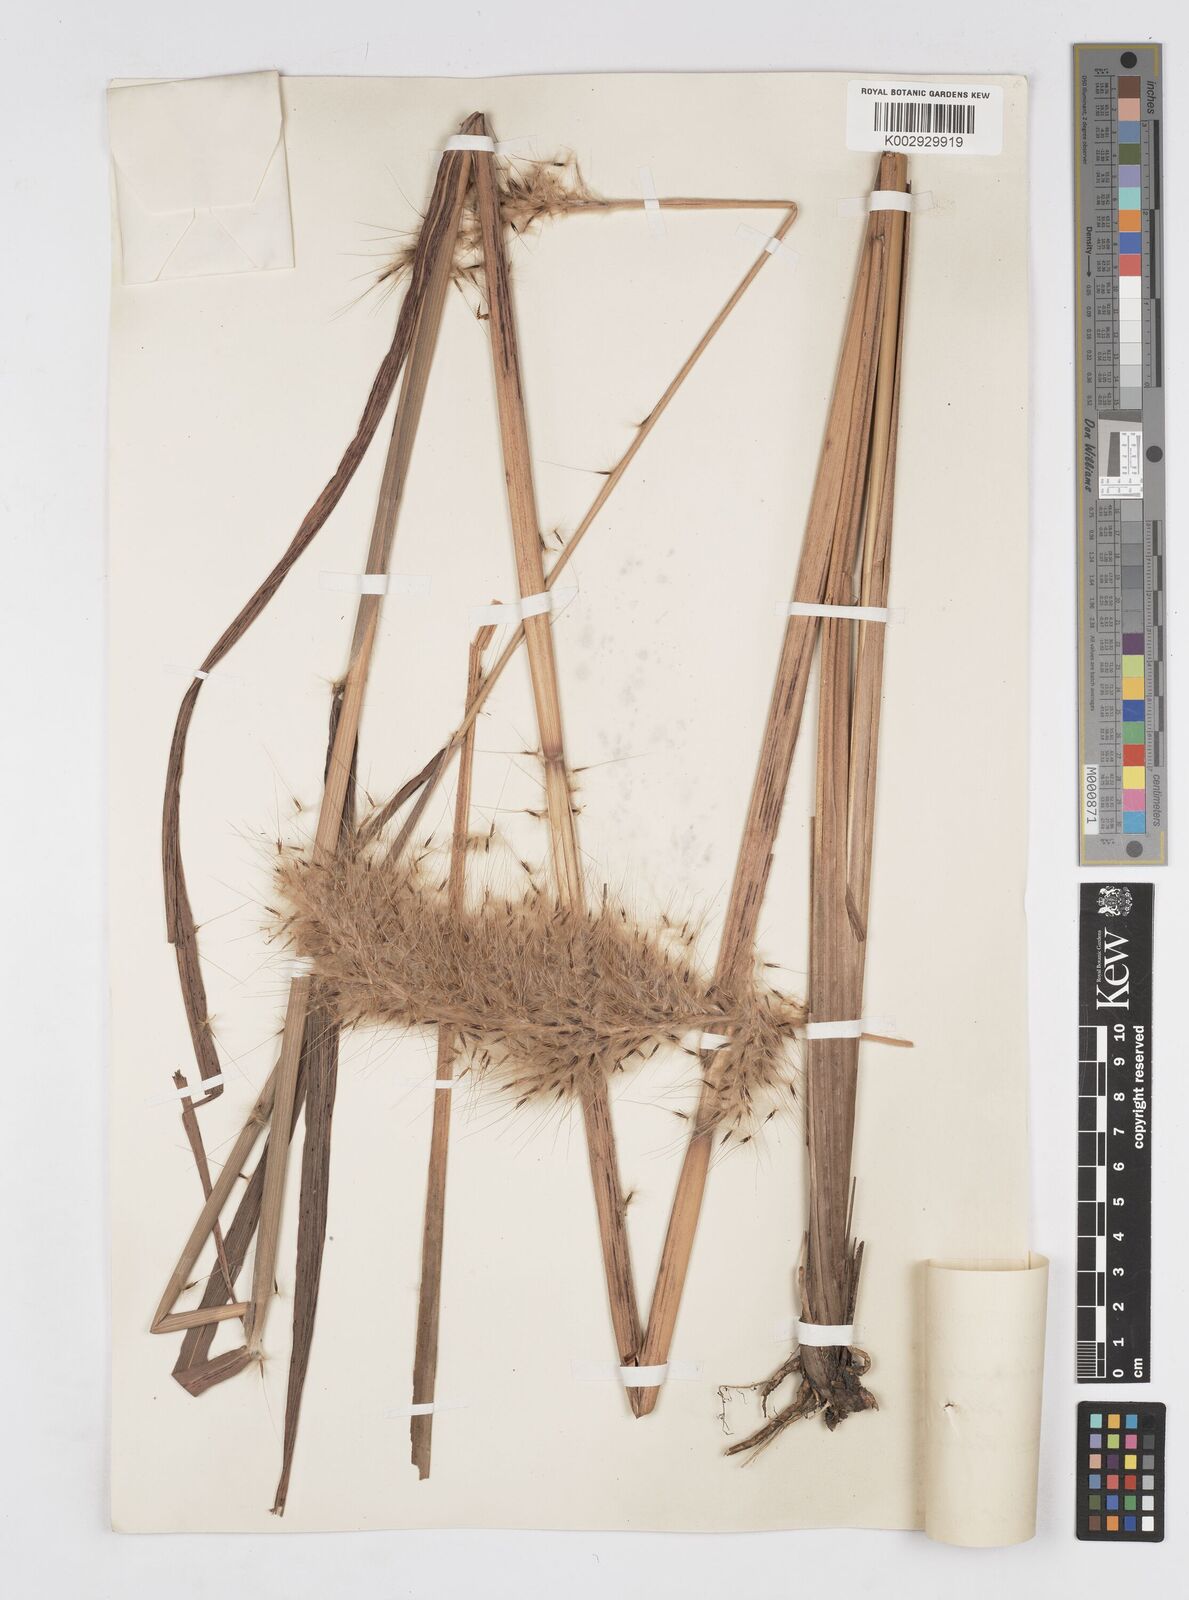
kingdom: Plantae
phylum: Tracheophyta
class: Liliopsida
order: Poales
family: Poaceae
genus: Erianthus
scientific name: Erianthus giganteus
